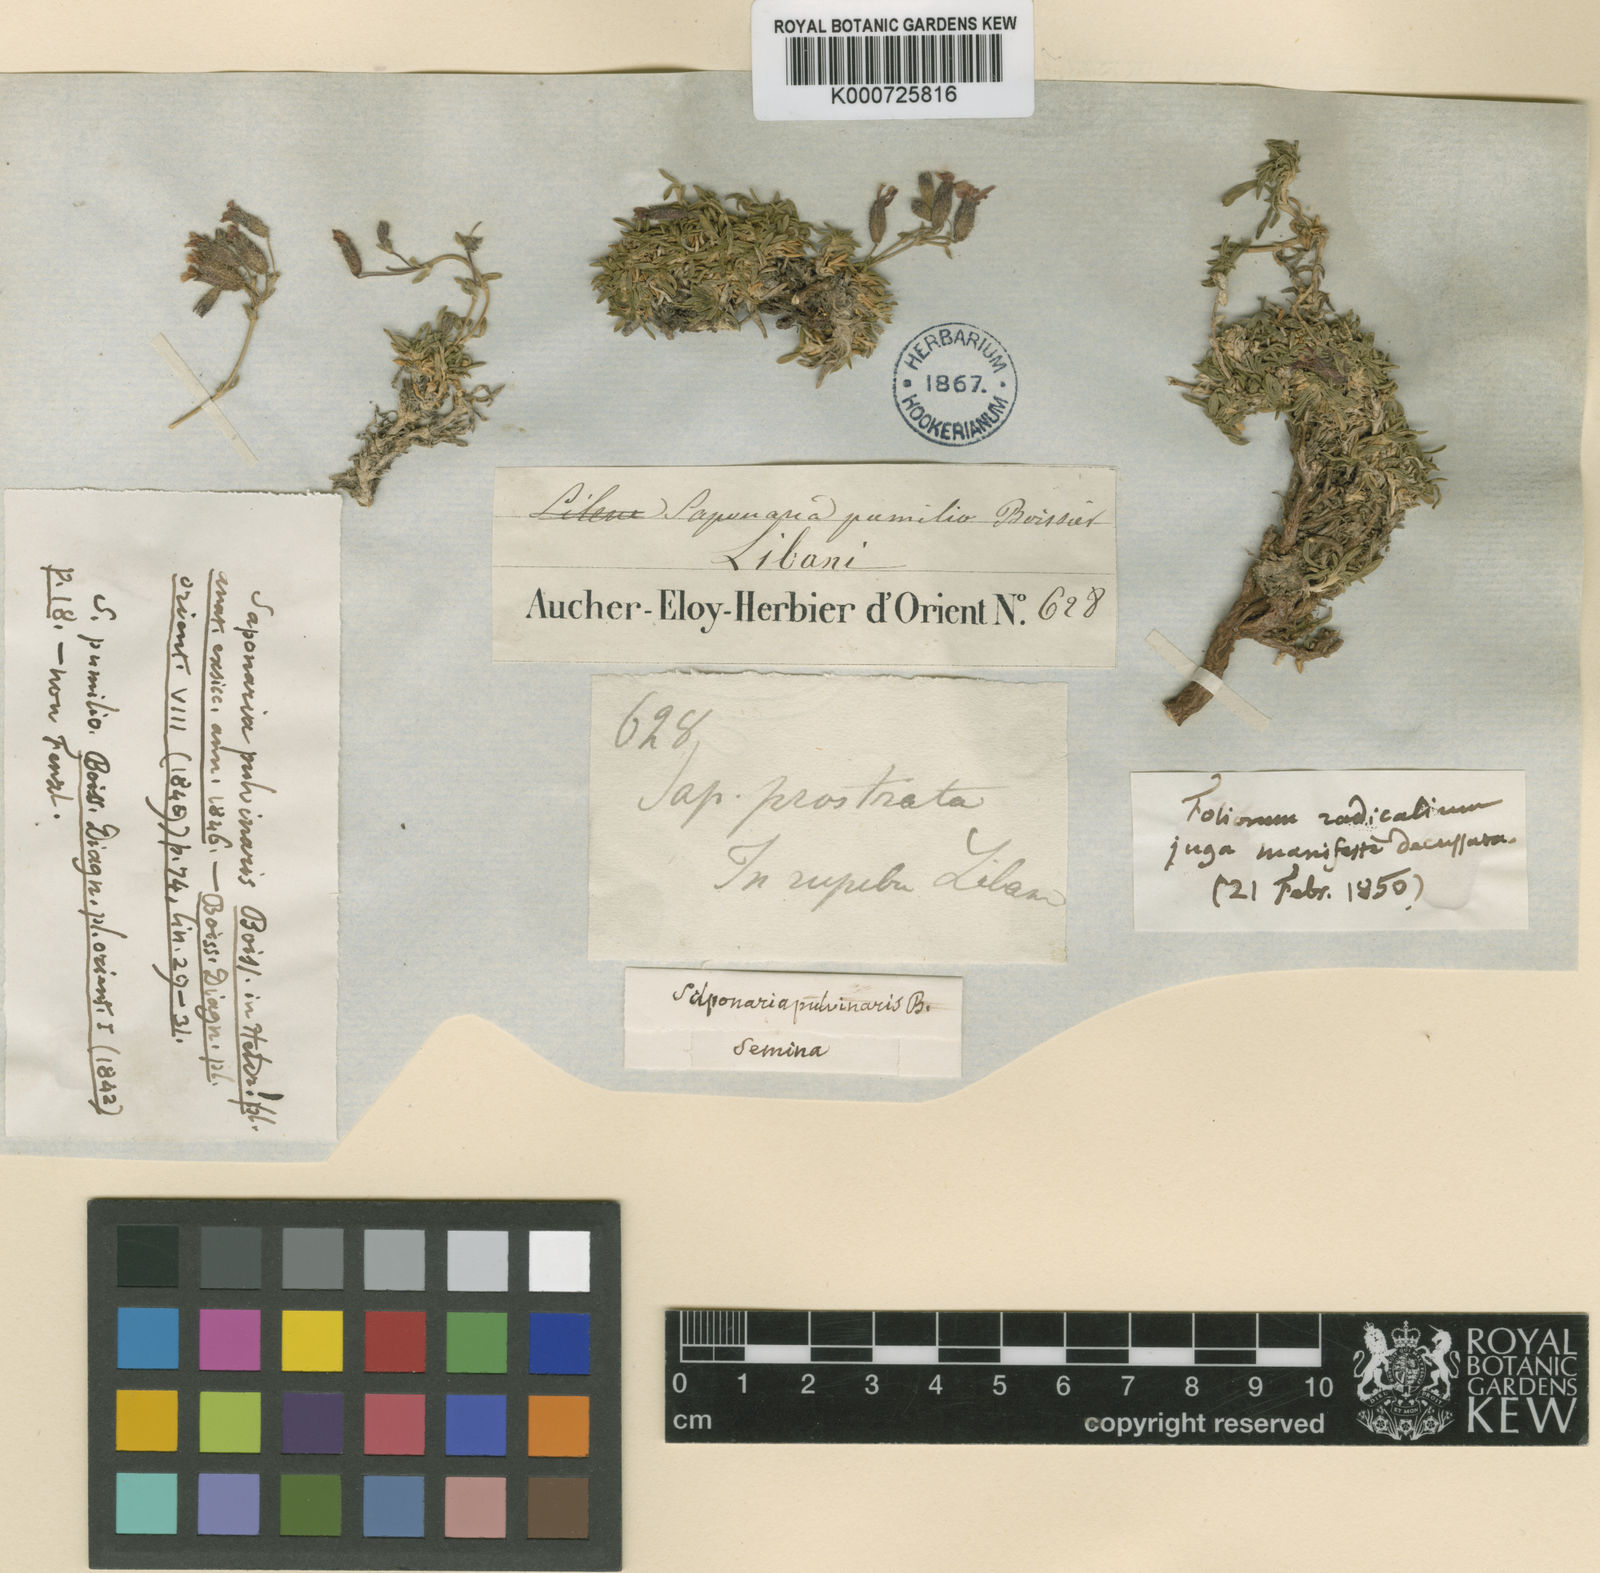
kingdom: Plantae
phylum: Tracheophyta
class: Magnoliopsida
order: Caryophyllales
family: Caryophyllaceae
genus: Saponaria
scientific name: Saponaria pumila
